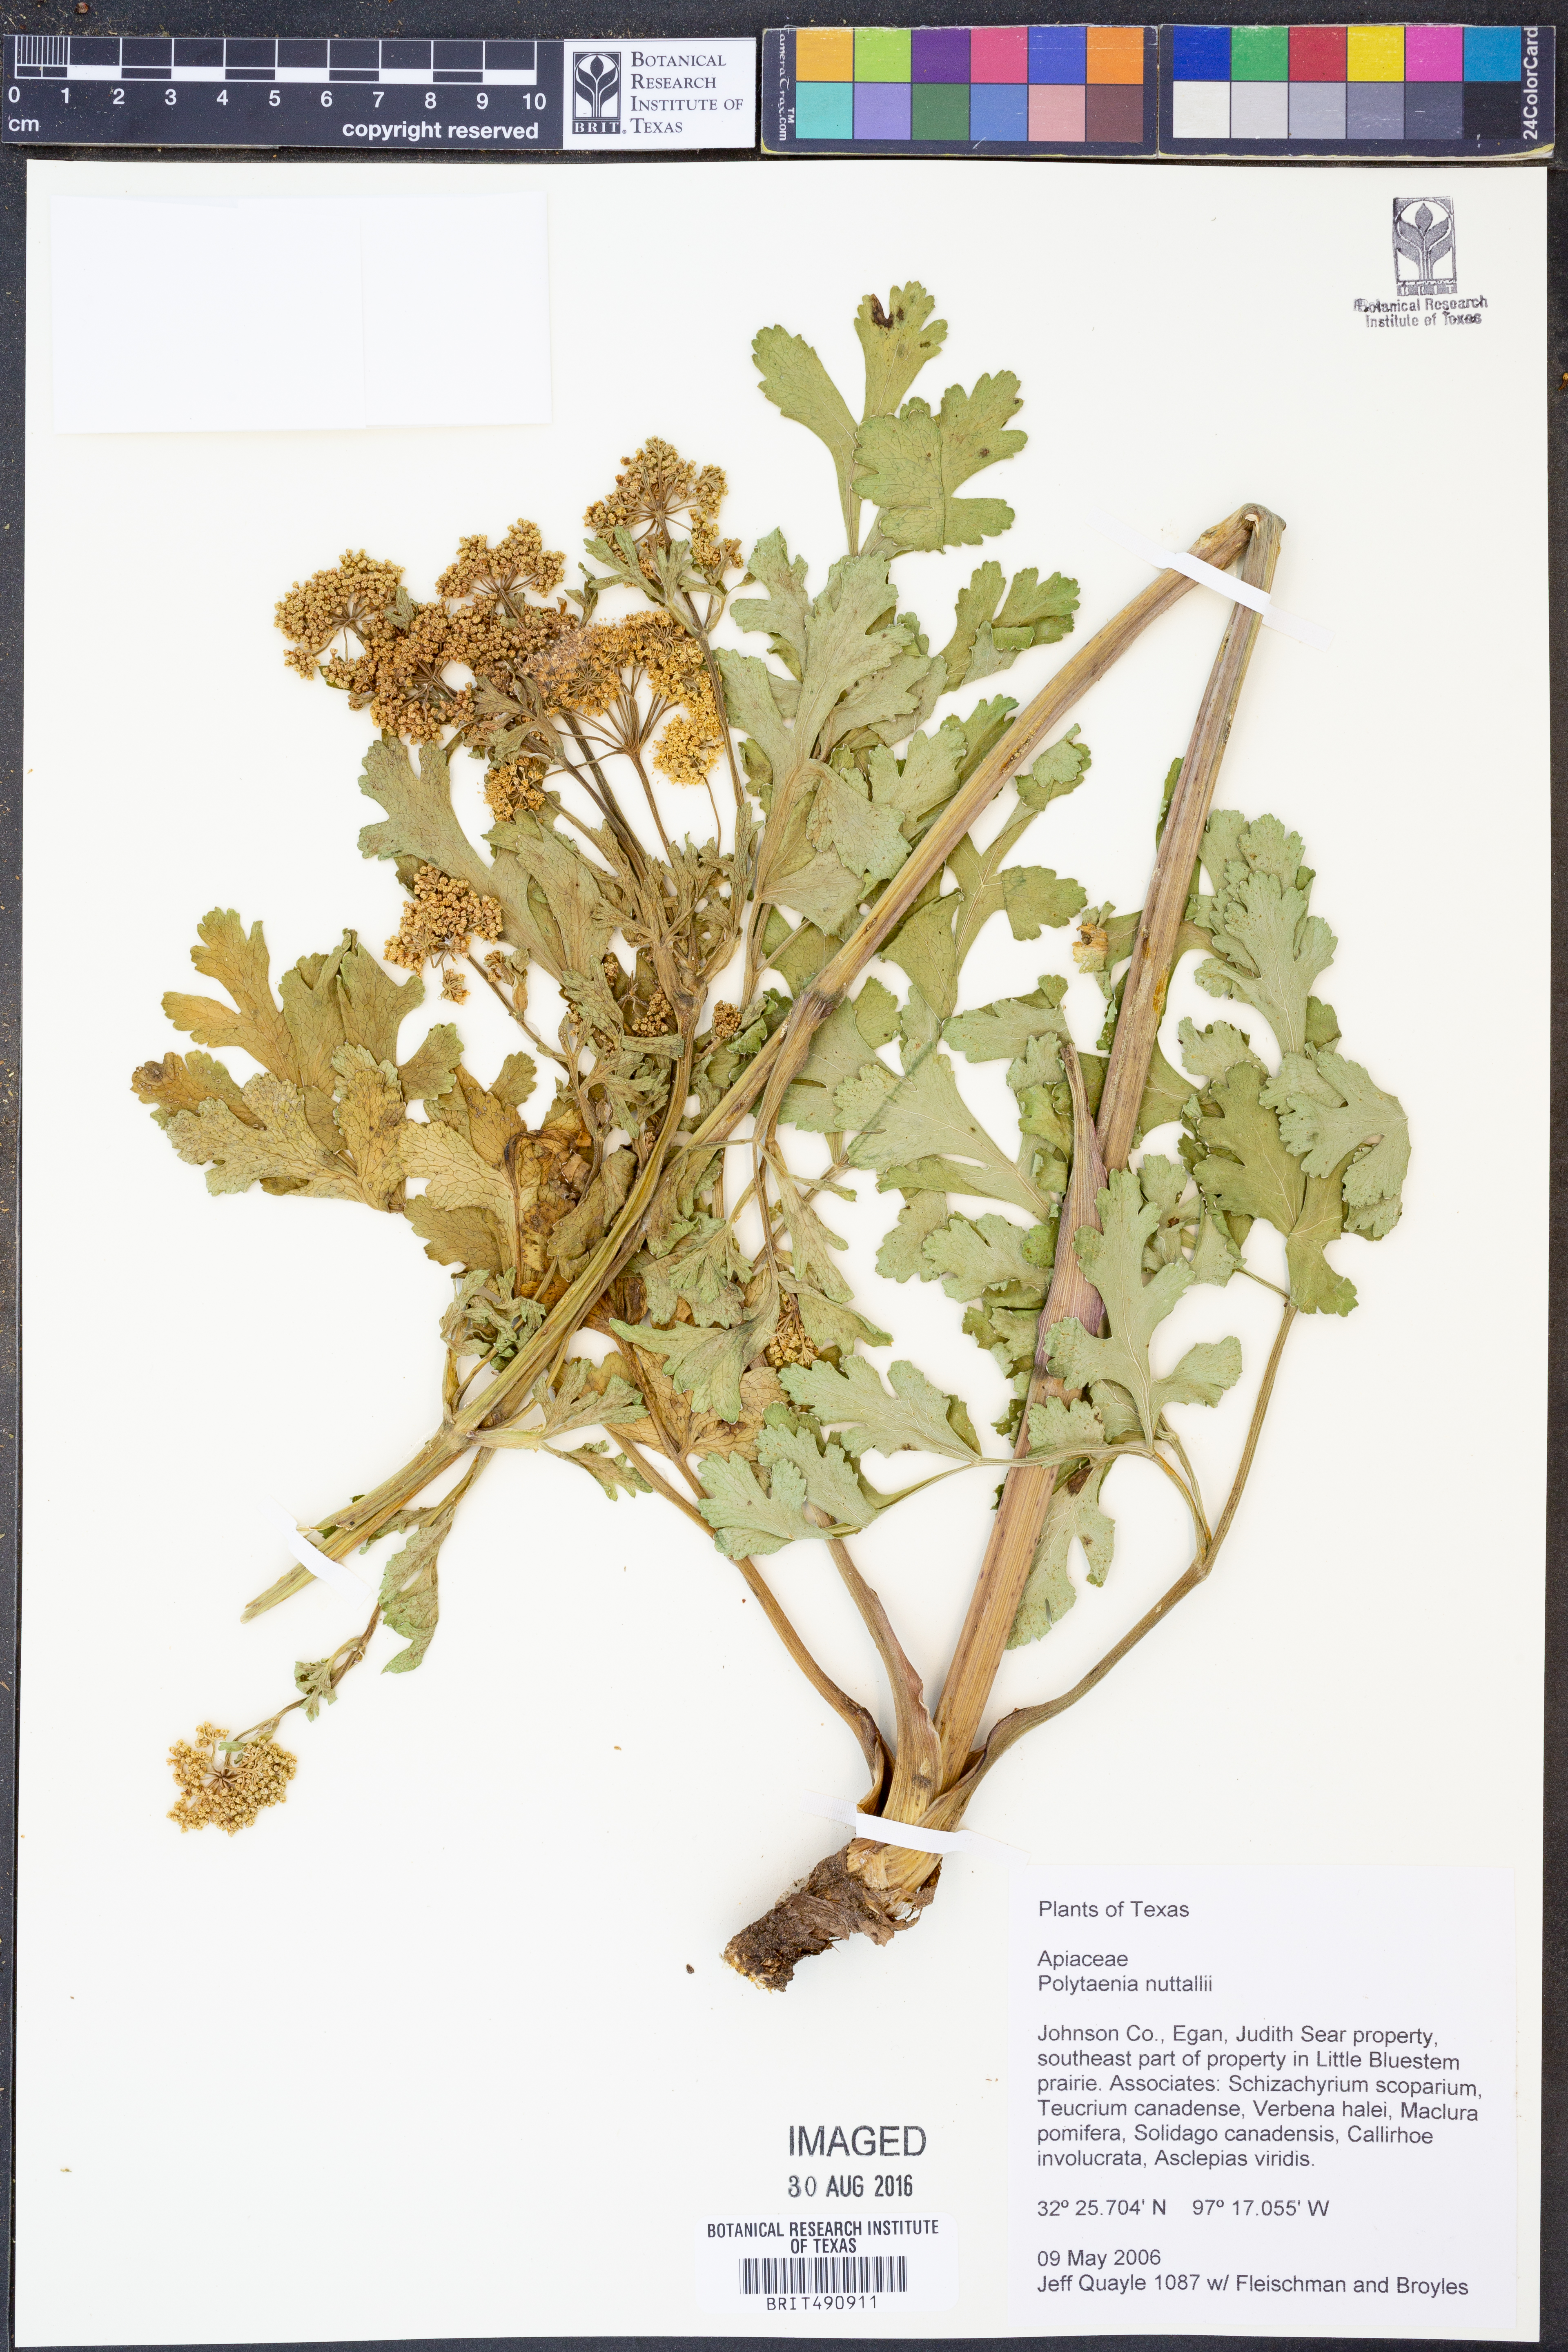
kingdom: Plantae
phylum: Tracheophyta
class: Magnoliopsida
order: Apiales
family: Apiaceae
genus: Polytaenia
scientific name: Polytaenia nuttallii
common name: Prairie-parsley
